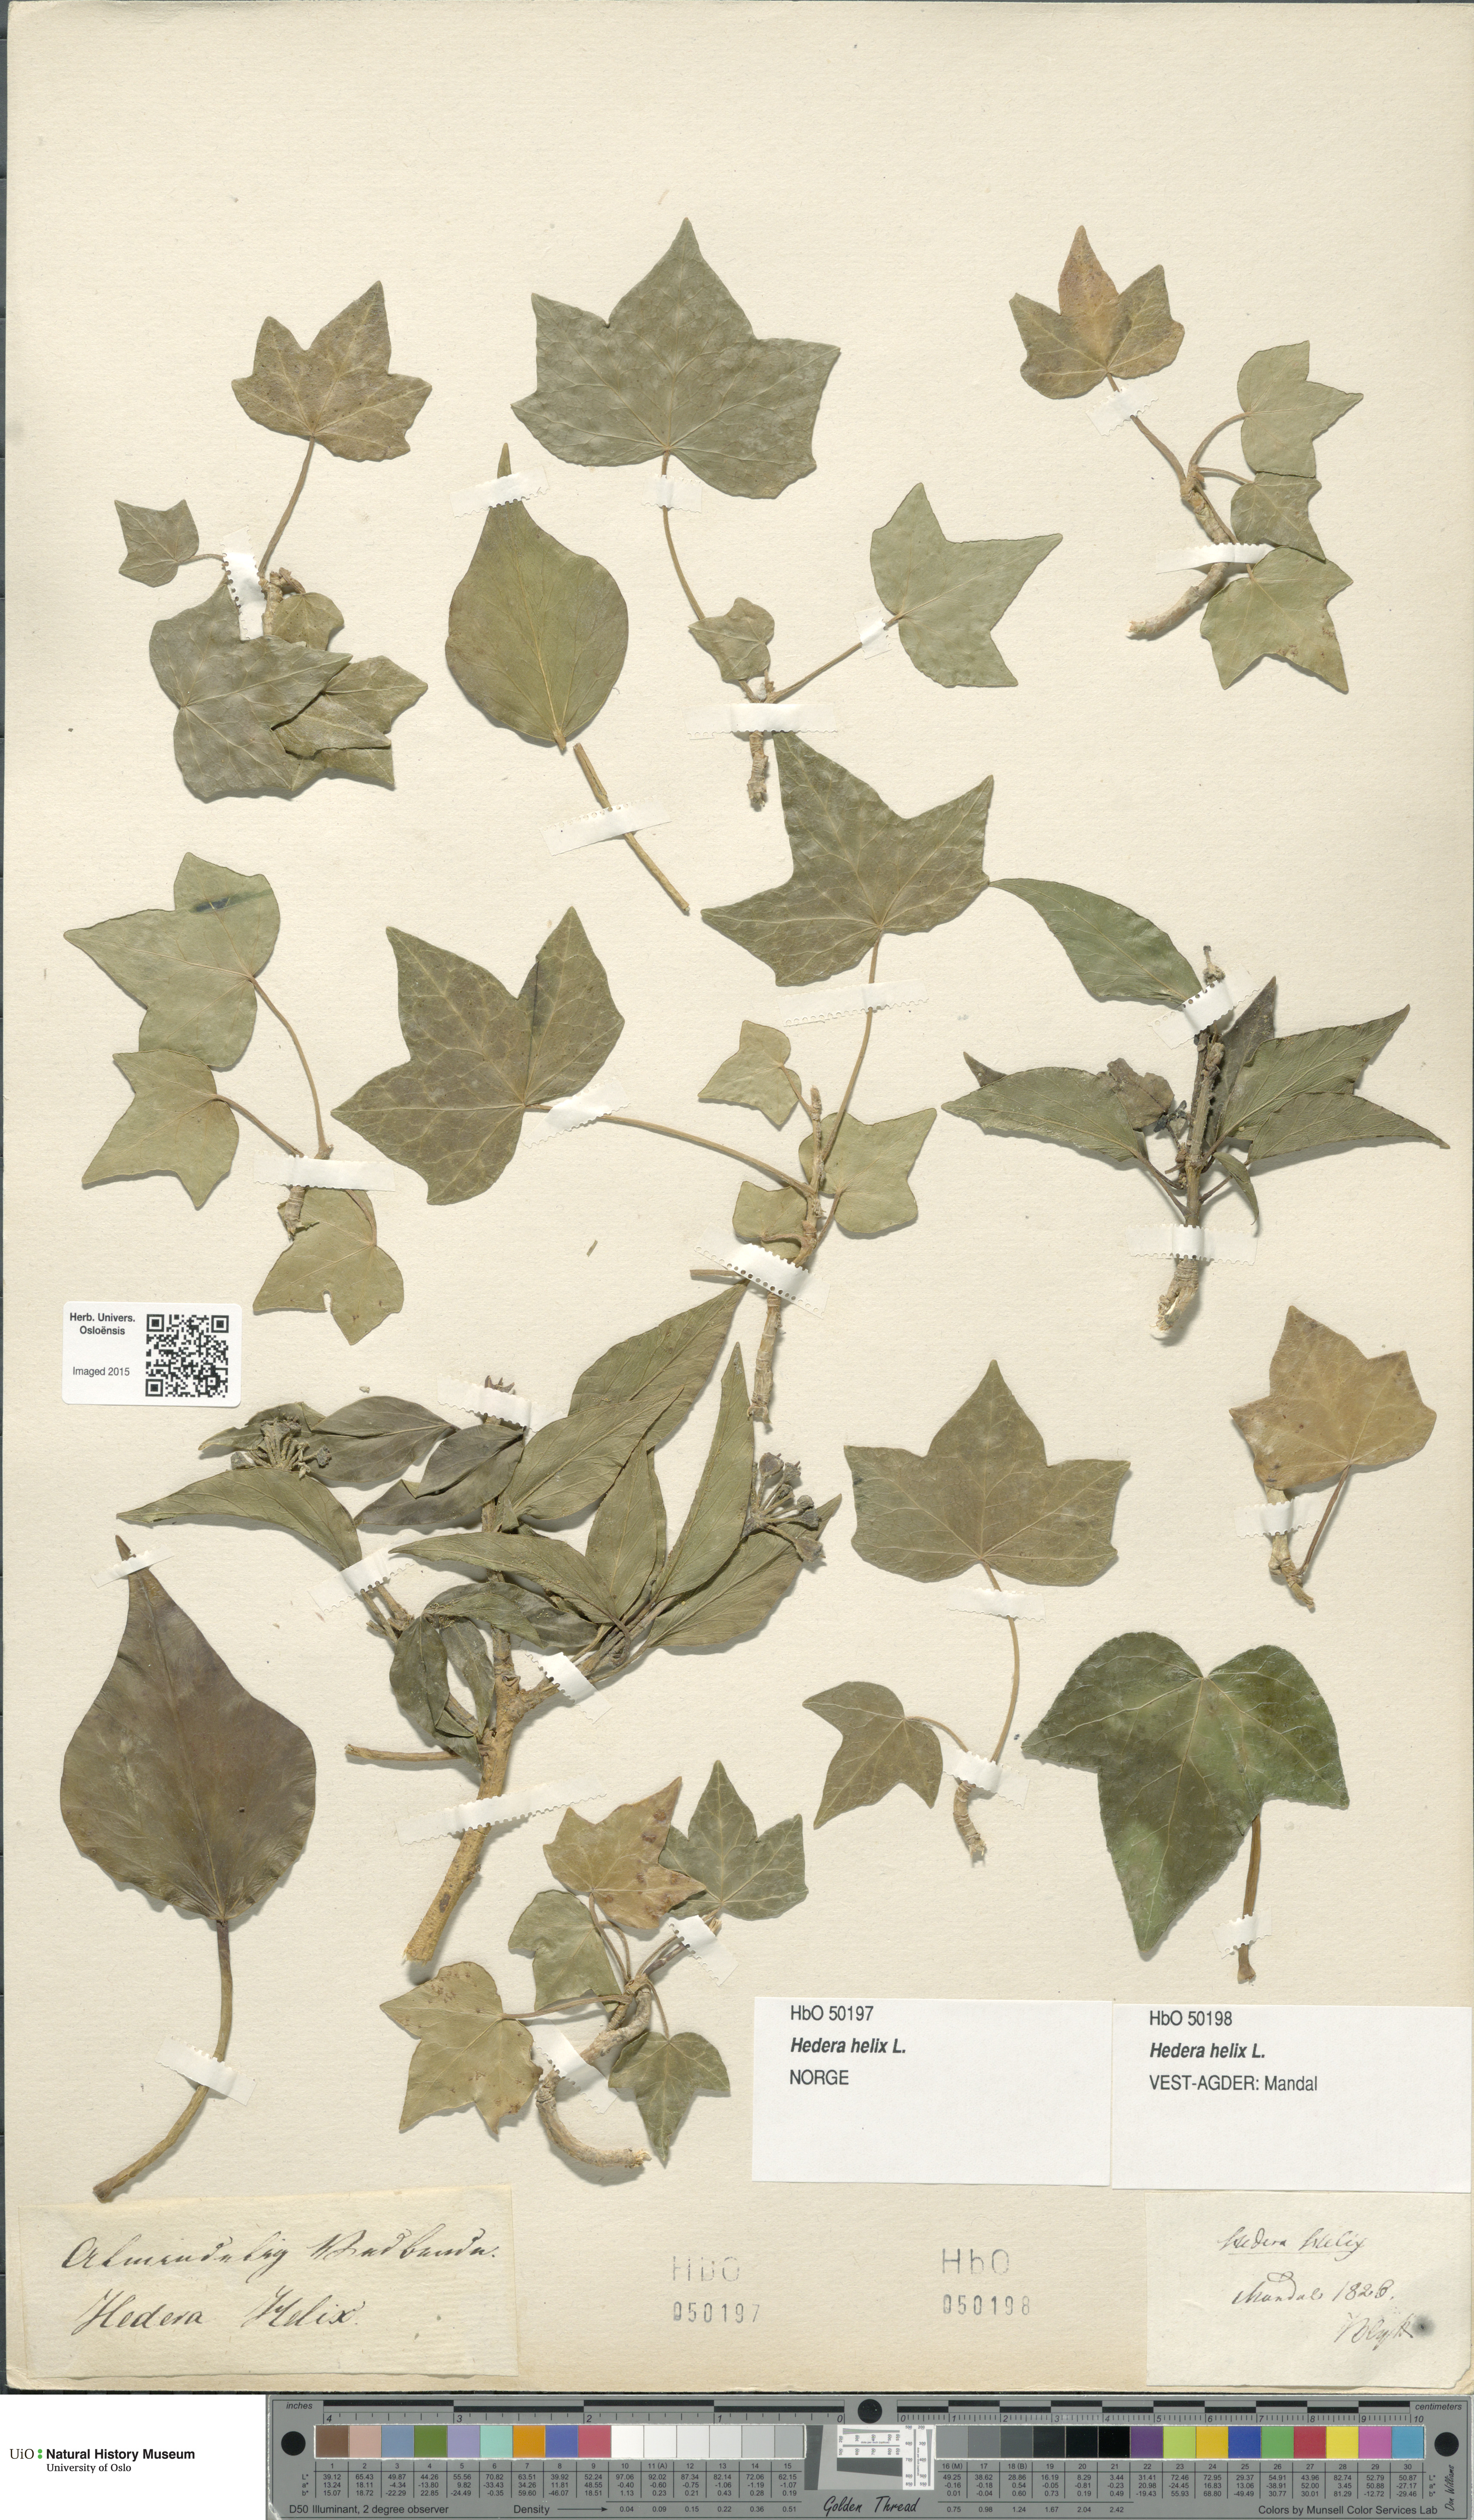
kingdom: Plantae
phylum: Tracheophyta
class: Magnoliopsida
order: Apiales
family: Araliaceae
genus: Hedera
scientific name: Hedera helix
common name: Ivy
